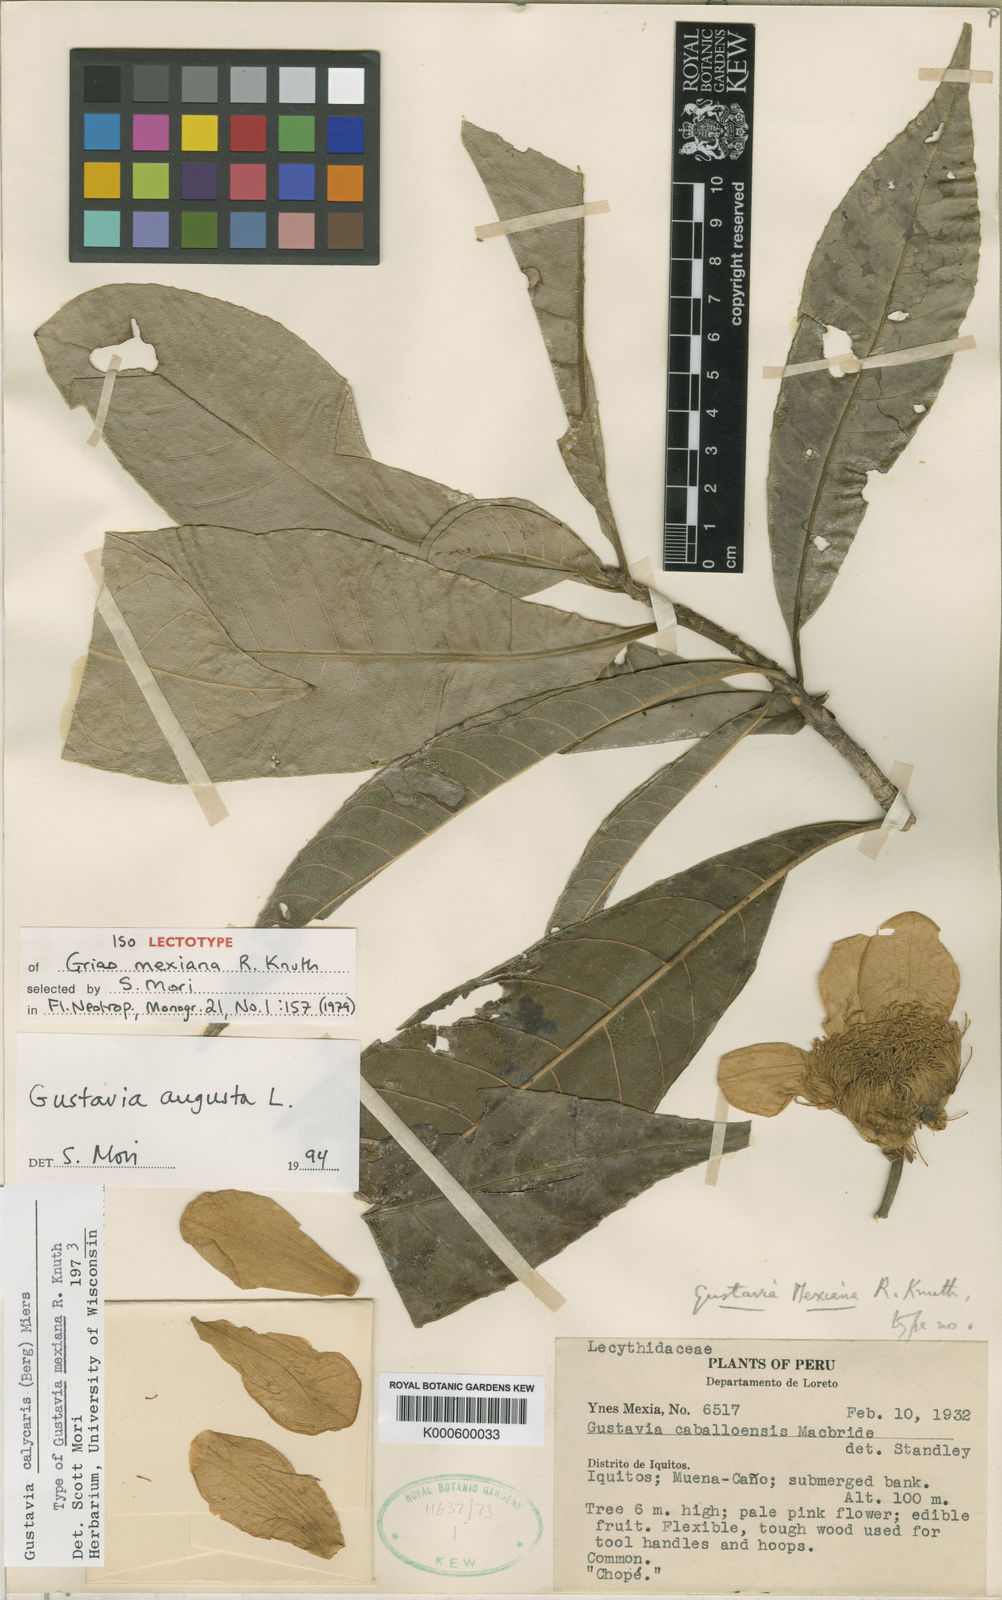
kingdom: Plantae
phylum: Tracheophyta
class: Magnoliopsida
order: Ericales
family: Lecythidaceae
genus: Gustavia
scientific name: Gustavia augusta
